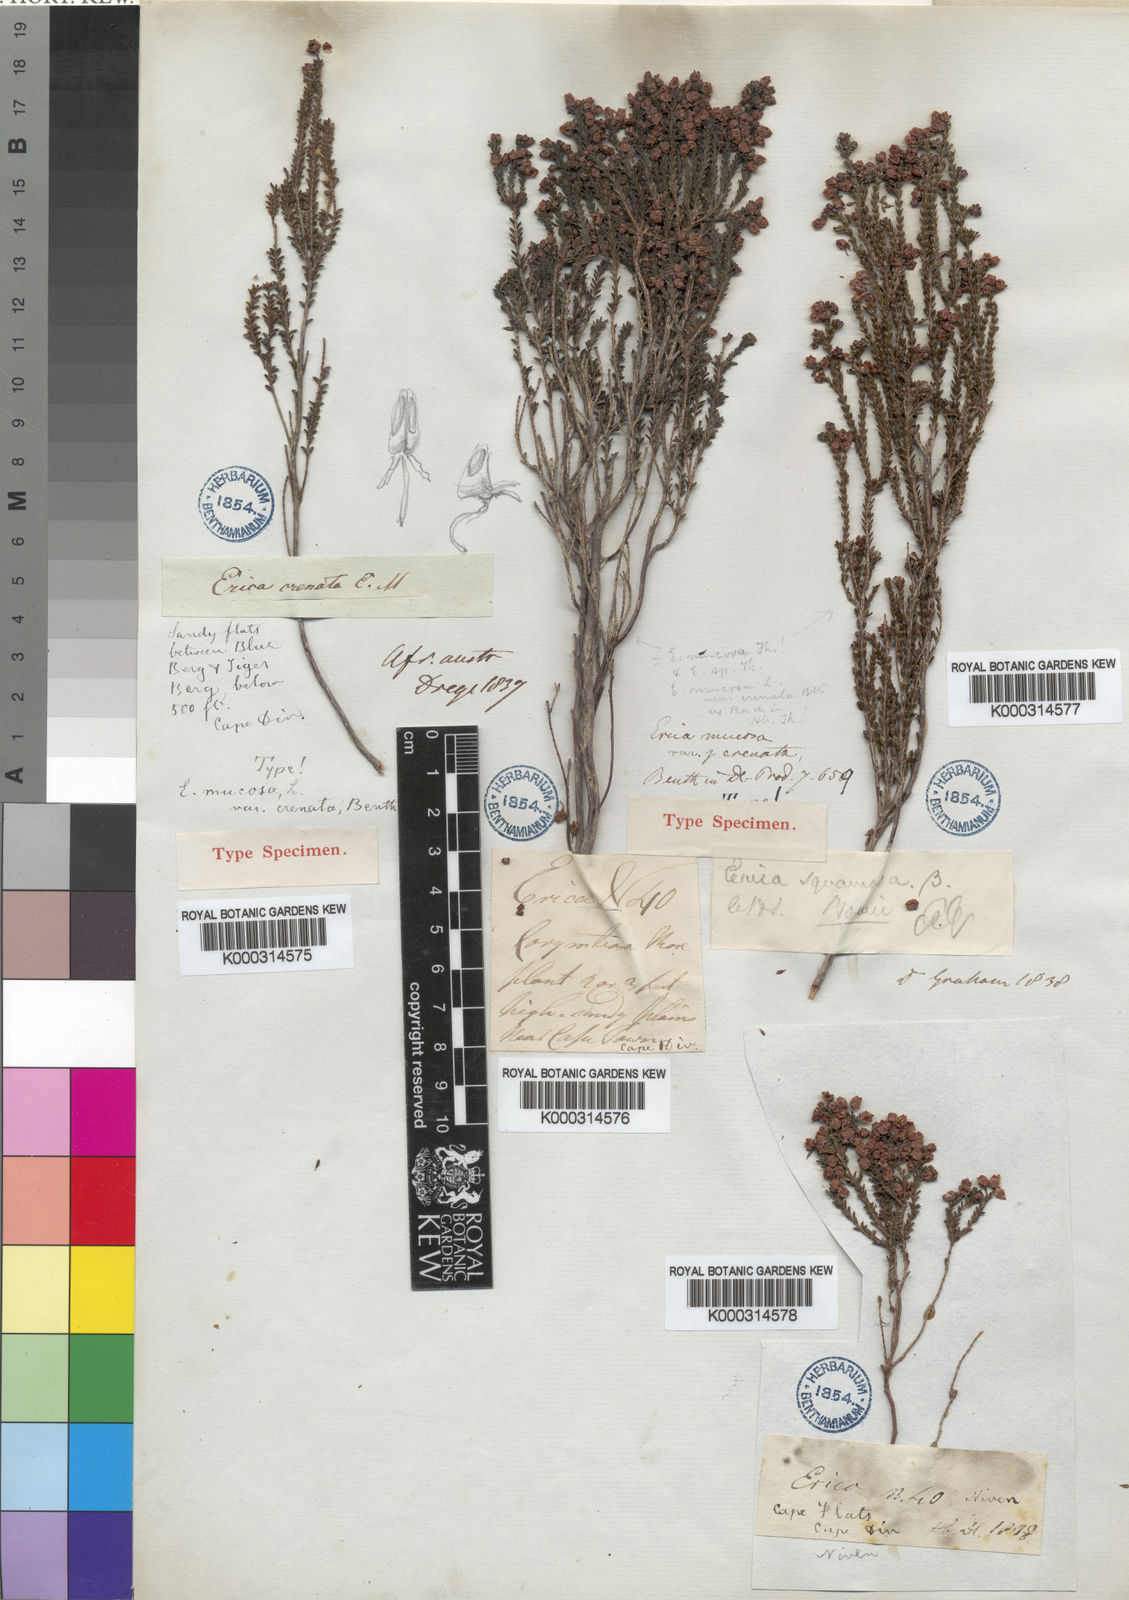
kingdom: Plantae
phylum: Tracheophyta
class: Magnoliopsida
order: Ericales
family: Ericaceae
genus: Erica
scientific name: Erica ferrea
